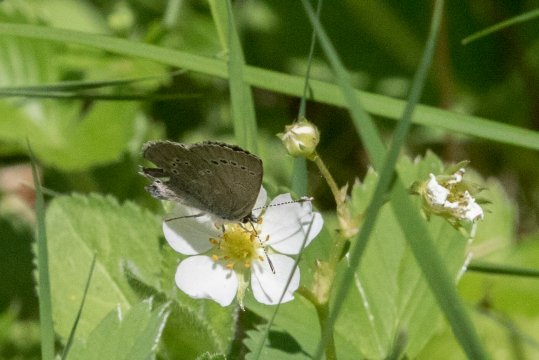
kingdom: Animalia
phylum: Arthropoda
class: Insecta
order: Lepidoptera
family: Lycaenidae
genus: Glaucopsyche
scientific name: Glaucopsyche lygdamus
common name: Silvery Blue
